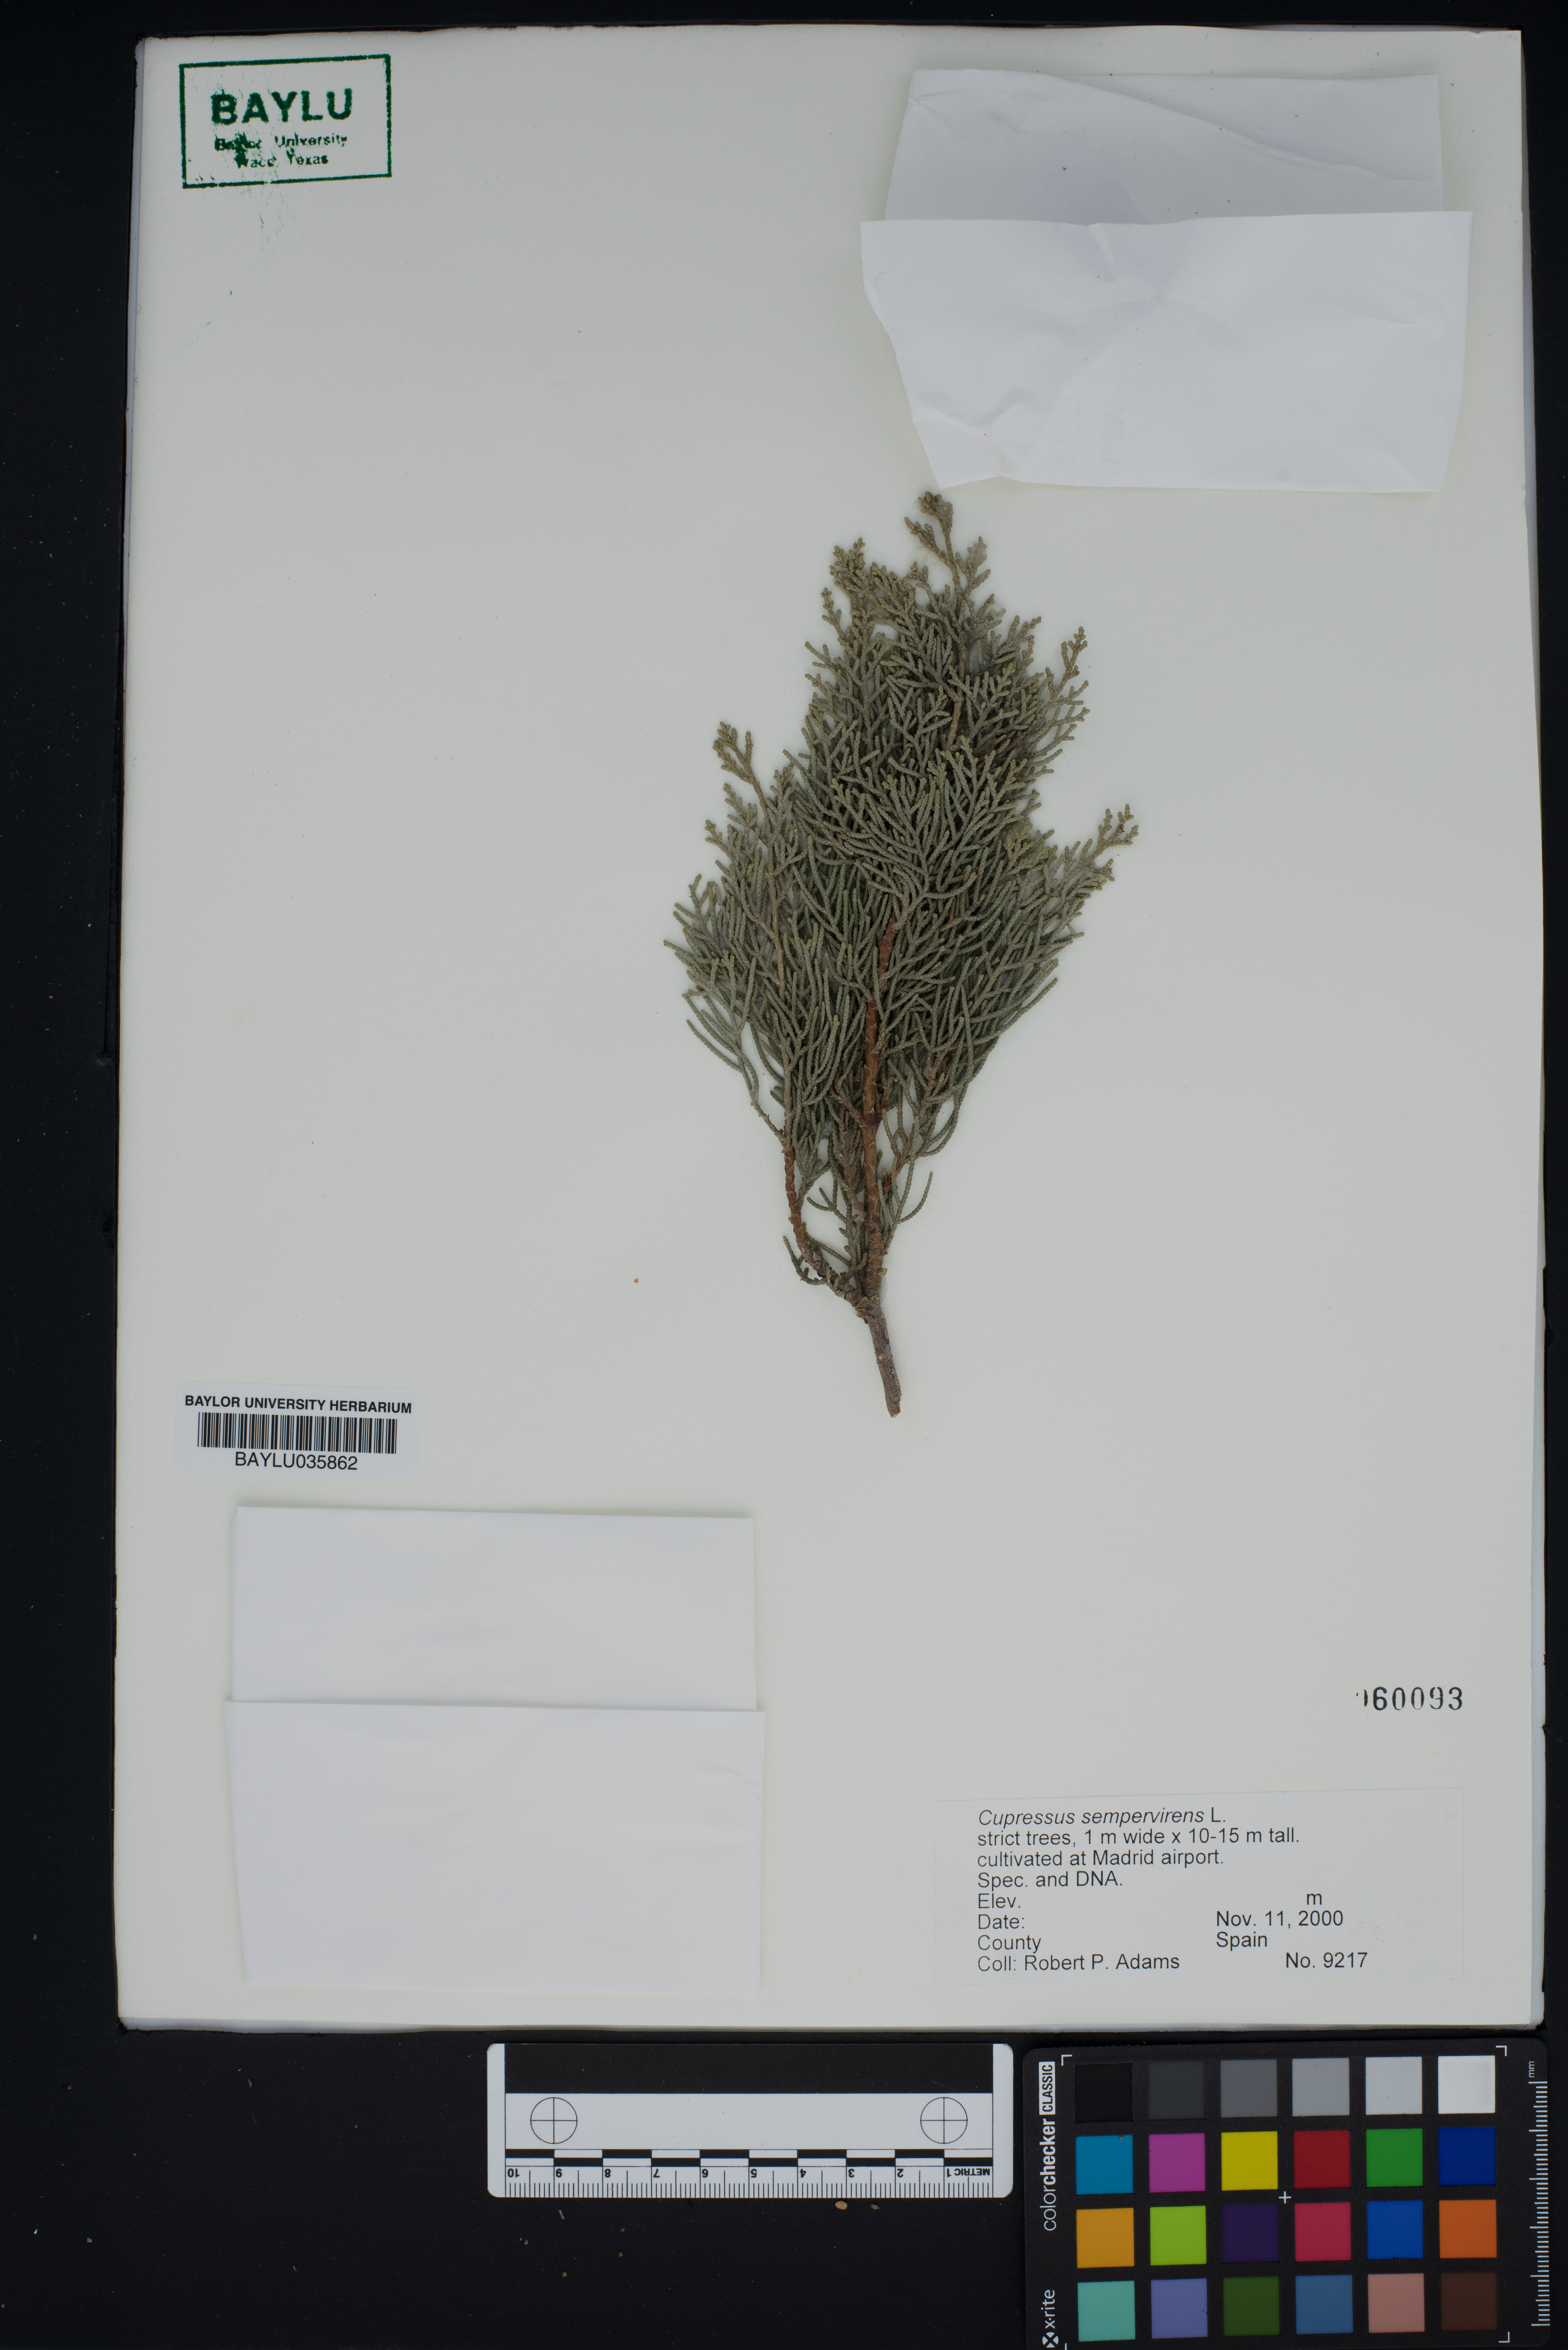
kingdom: Plantae
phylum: Tracheophyta
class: Pinopsida
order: Pinales
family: Cupressaceae
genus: Cupressus
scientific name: Cupressus sempervirens
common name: Italian cypress
